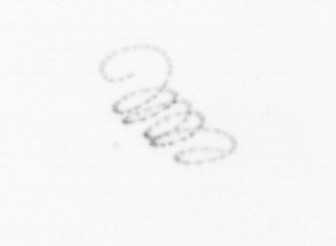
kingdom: Chromista
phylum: Ochrophyta
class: Bacillariophyceae
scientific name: Bacillariophyceae
